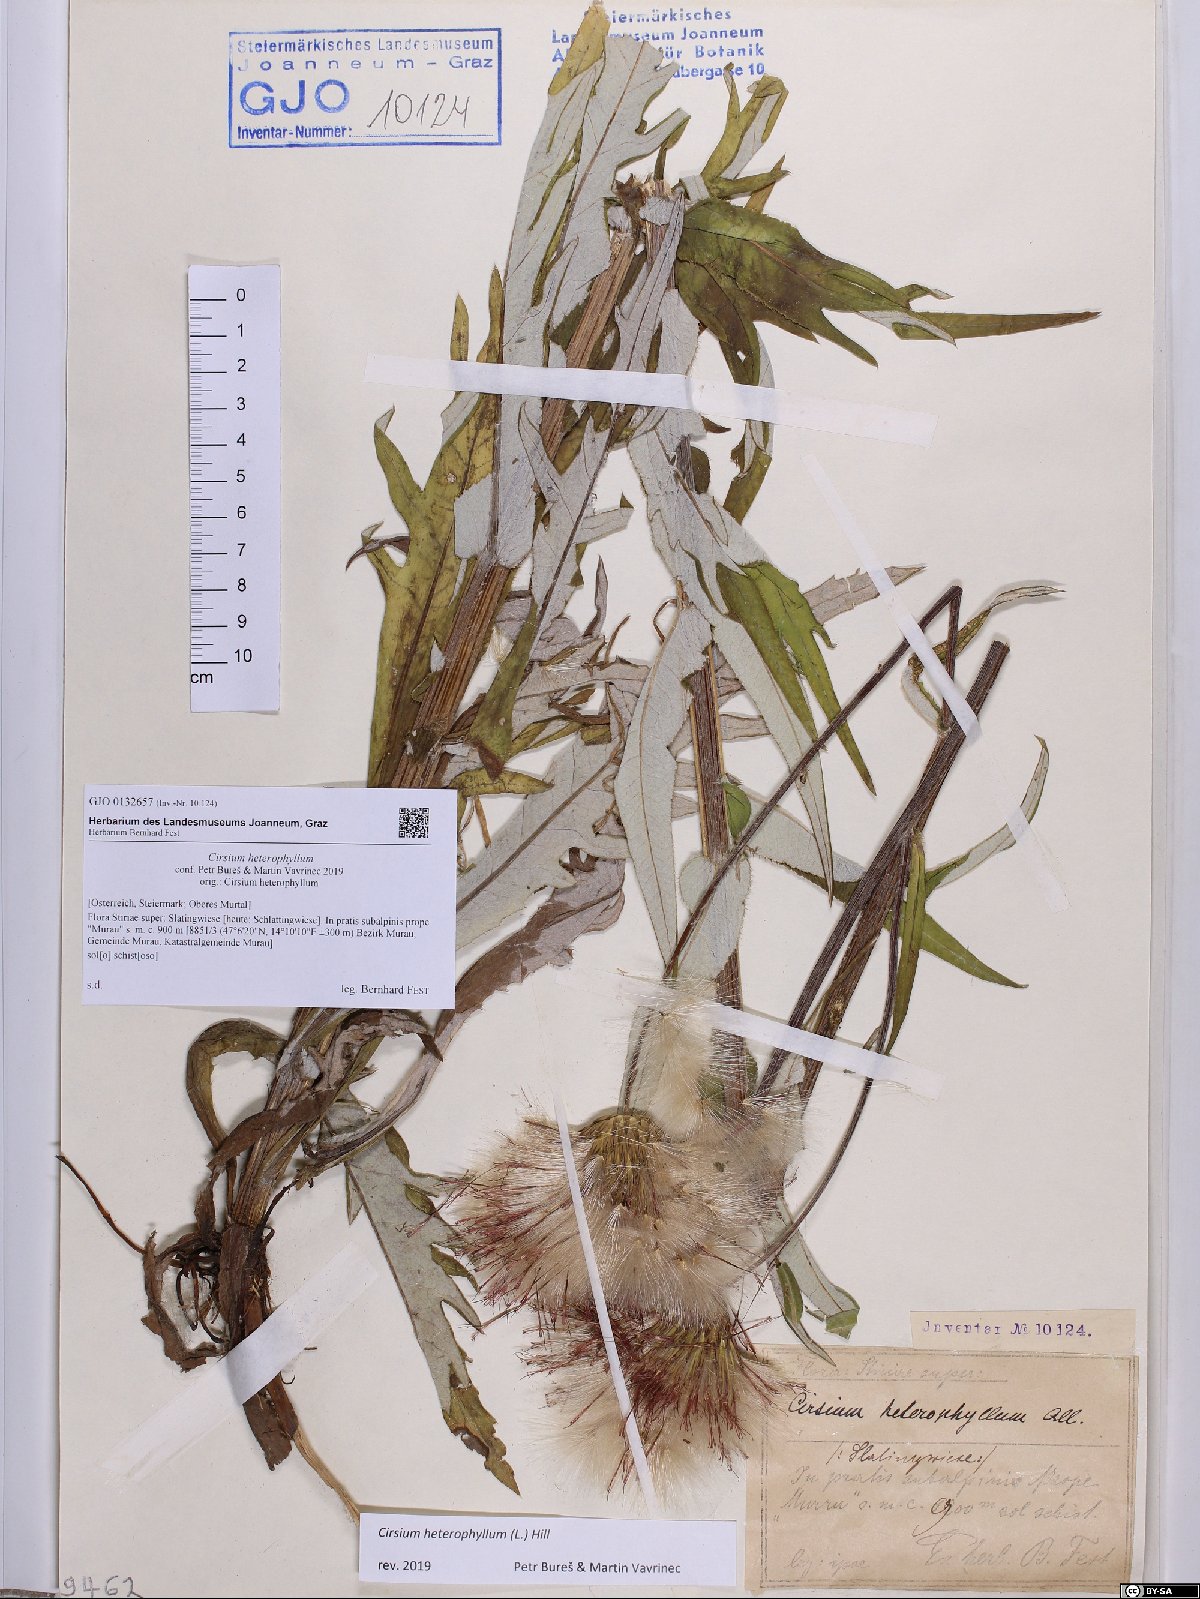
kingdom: Plantae
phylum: Tracheophyta
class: Magnoliopsida
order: Asterales
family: Asteraceae
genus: Cirsium
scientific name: Cirsium heterophyllum
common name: Melancholy thistle
